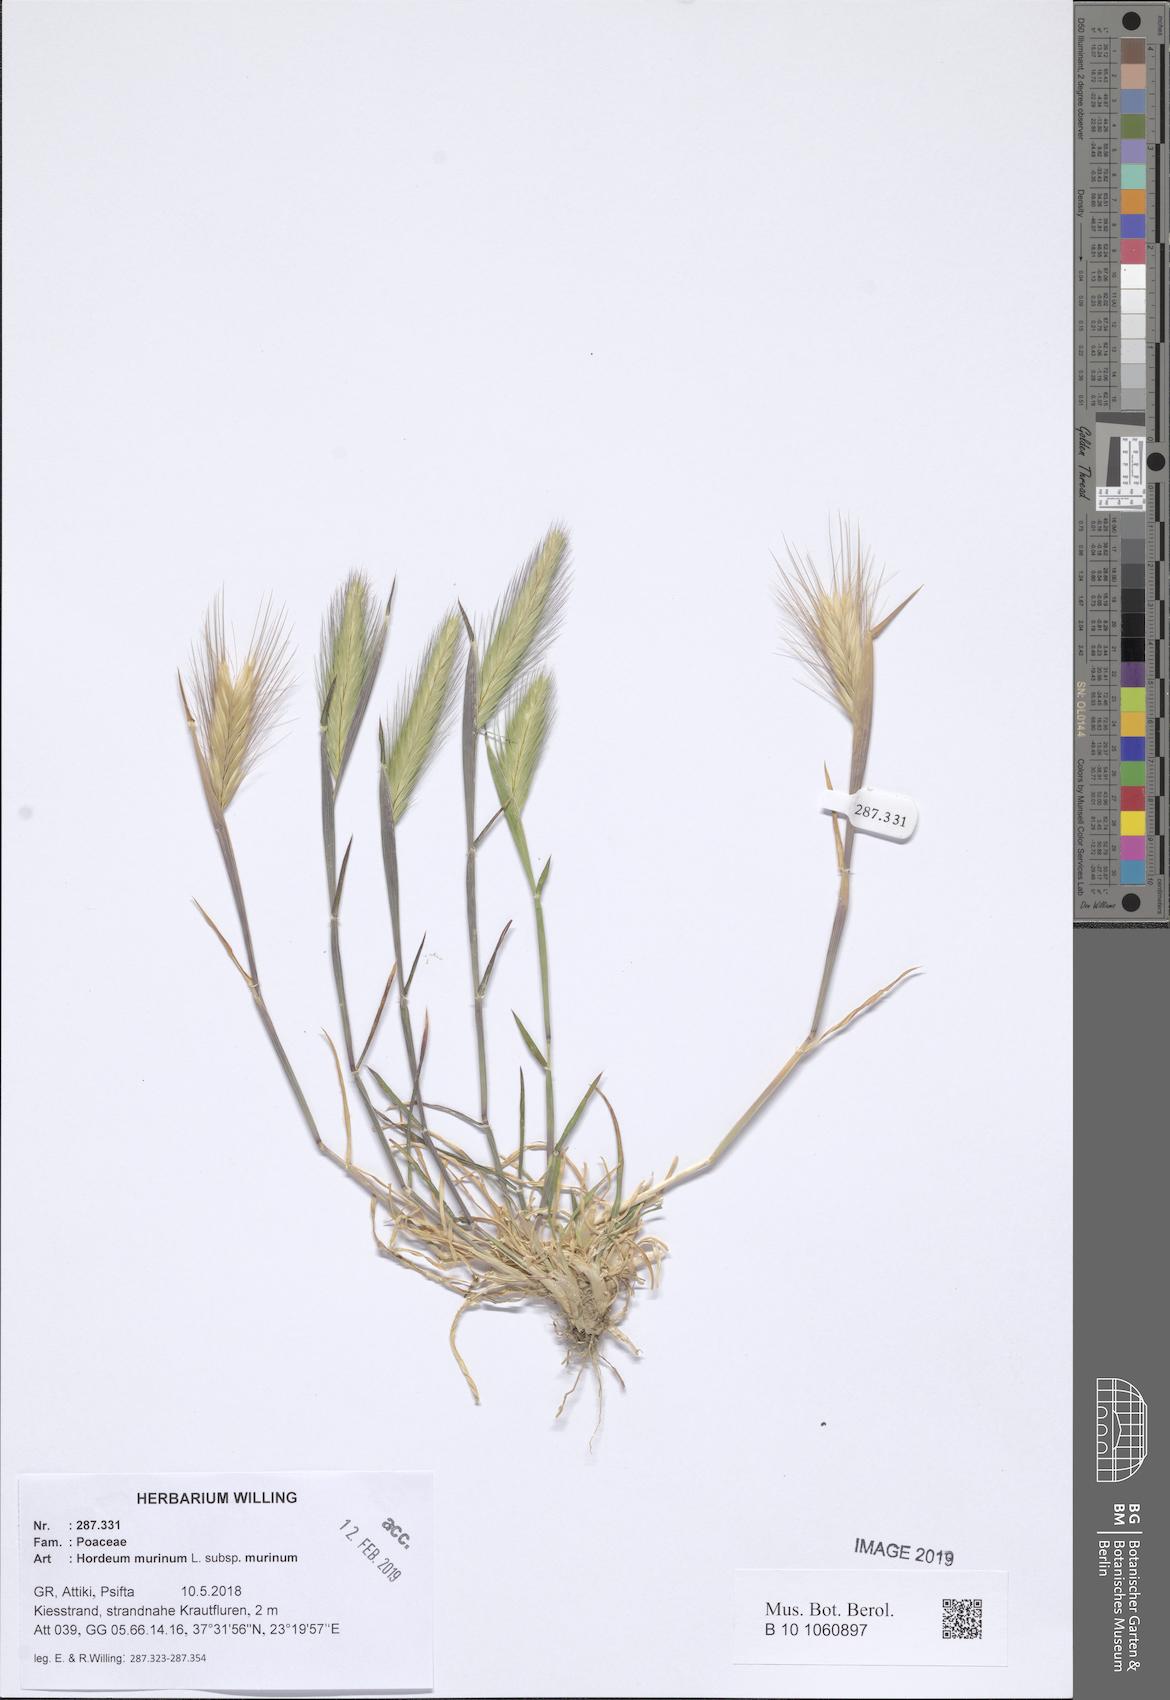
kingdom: Plantae
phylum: Tracheophyta
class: Liliopsida
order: Poales
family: Poaceae
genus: Hordeum
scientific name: Hordeum murinum
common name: Wall barley
